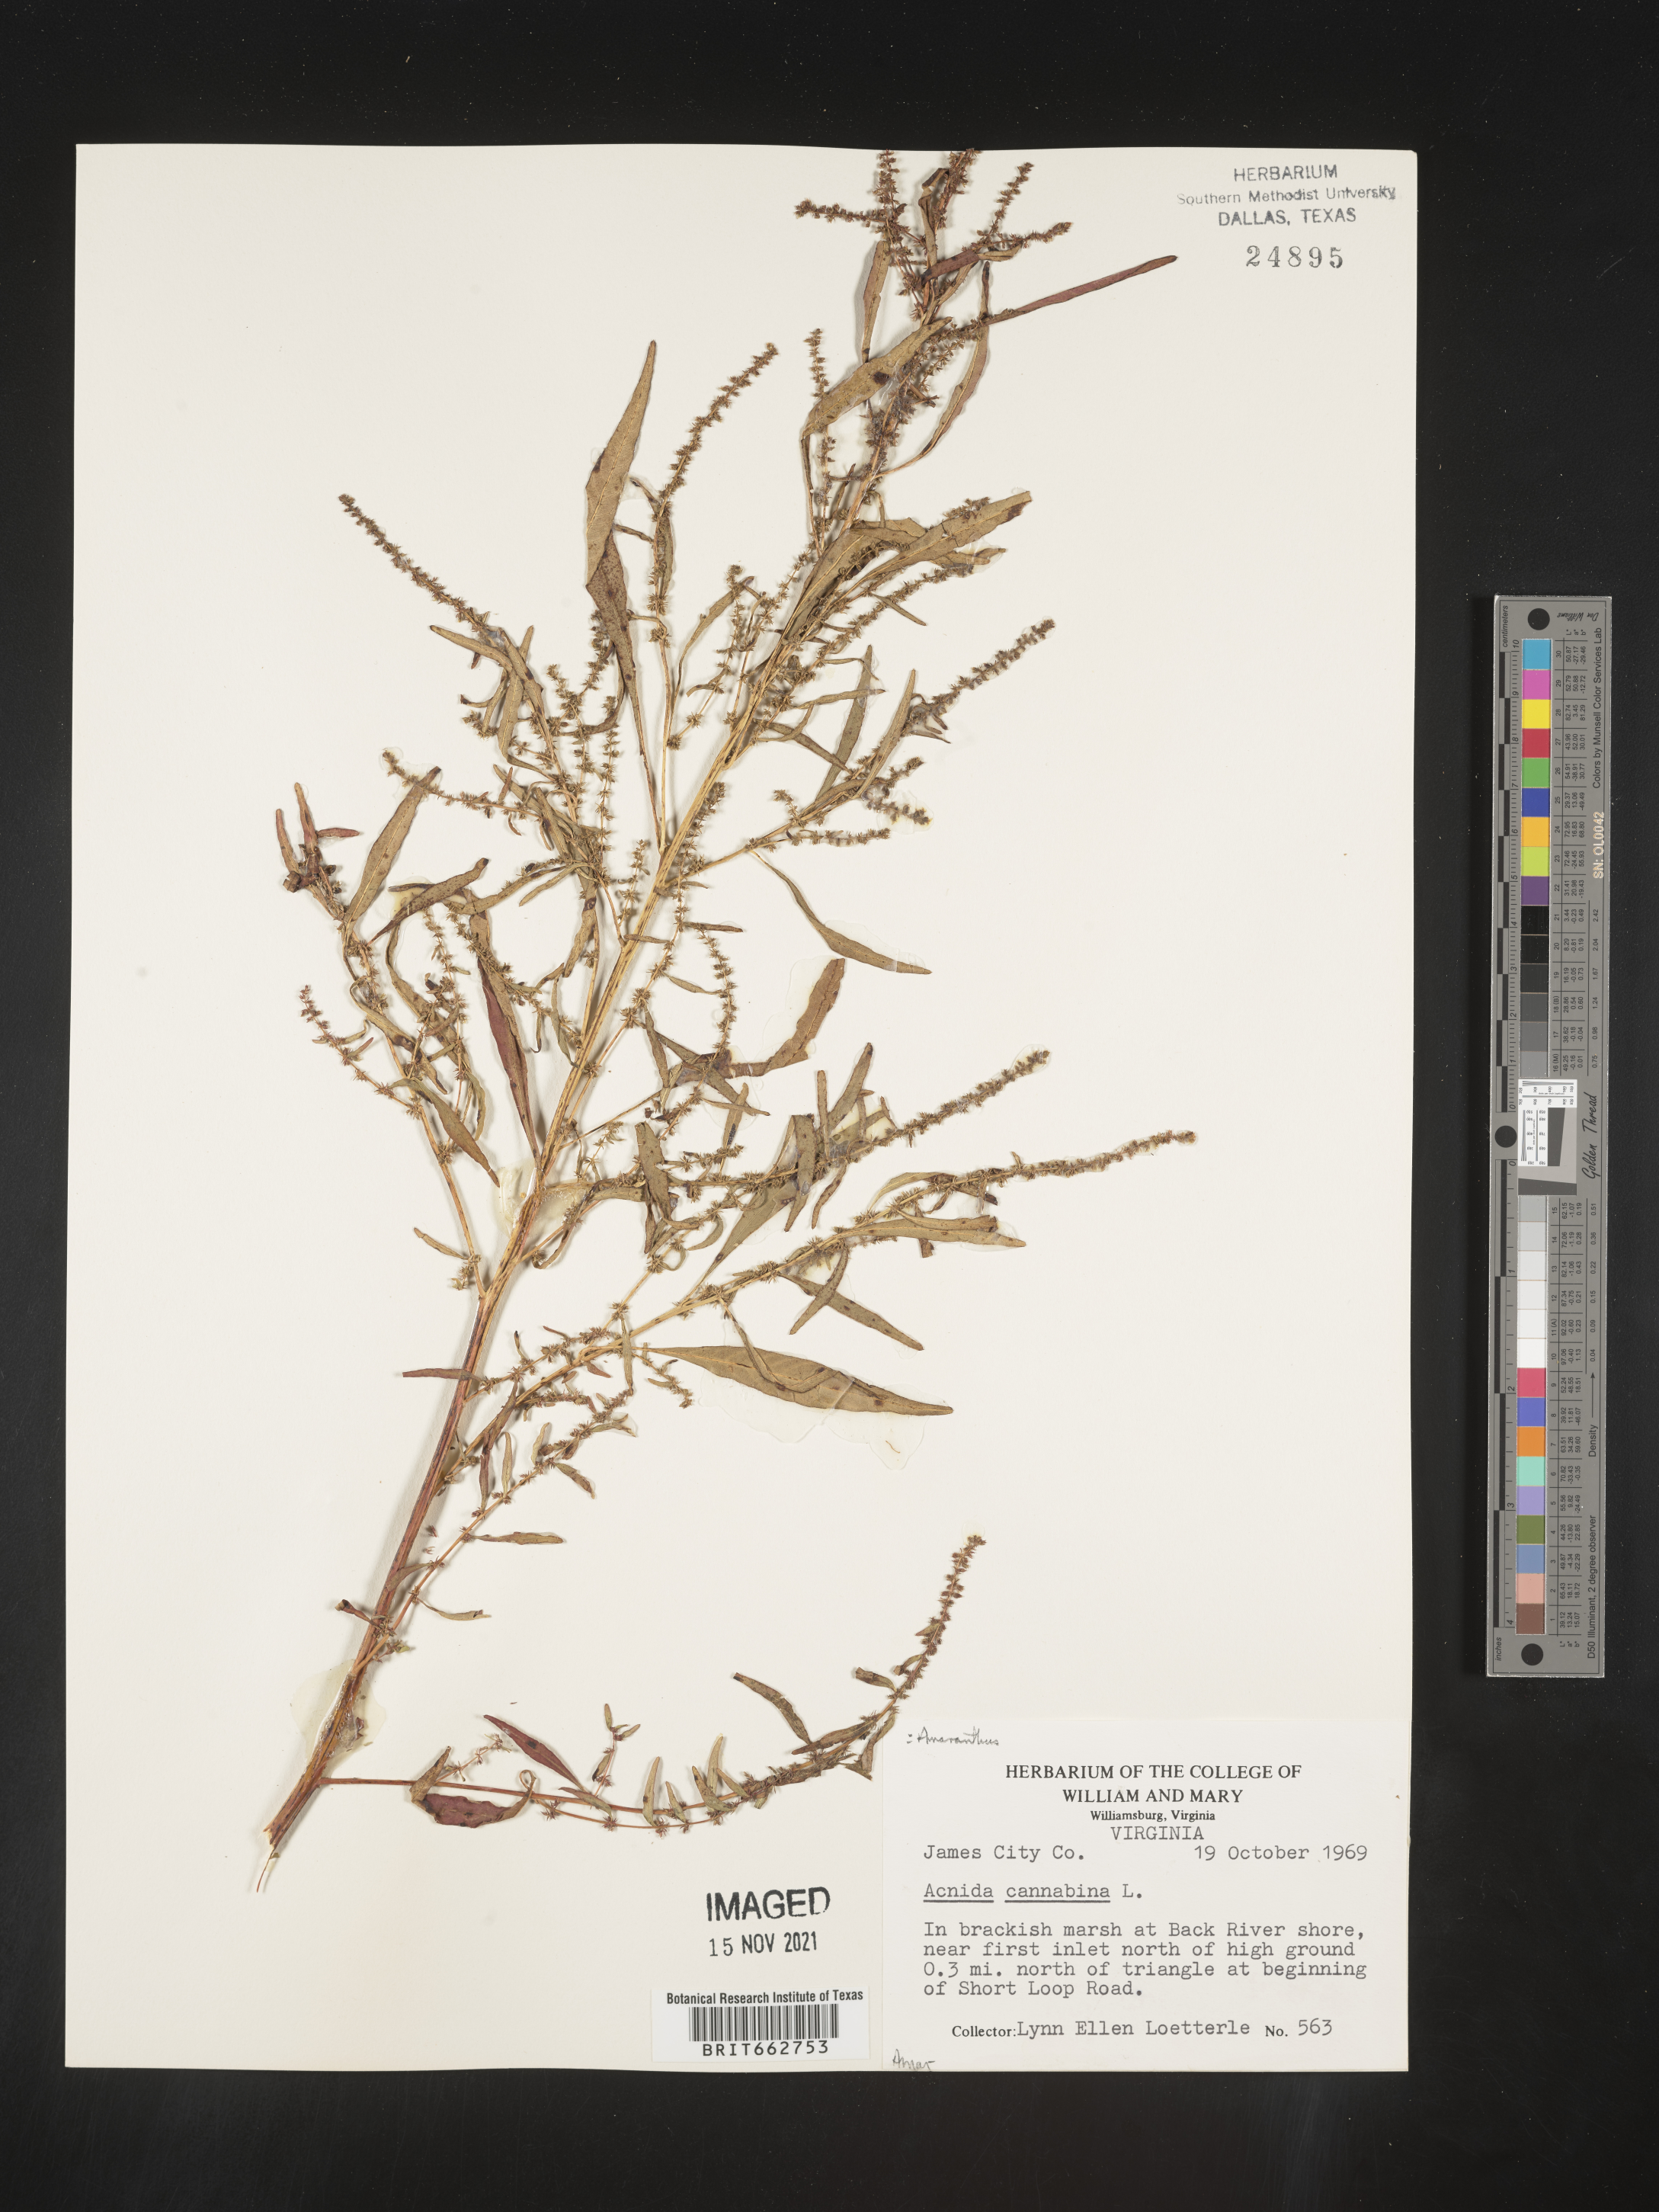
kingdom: Plantae
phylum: Tracheophyta
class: Magnoliopsida
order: Caryophyllales
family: Amaranthaceae
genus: Amaranthus
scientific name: Amaranthus powellii
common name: Powell's amaranth
